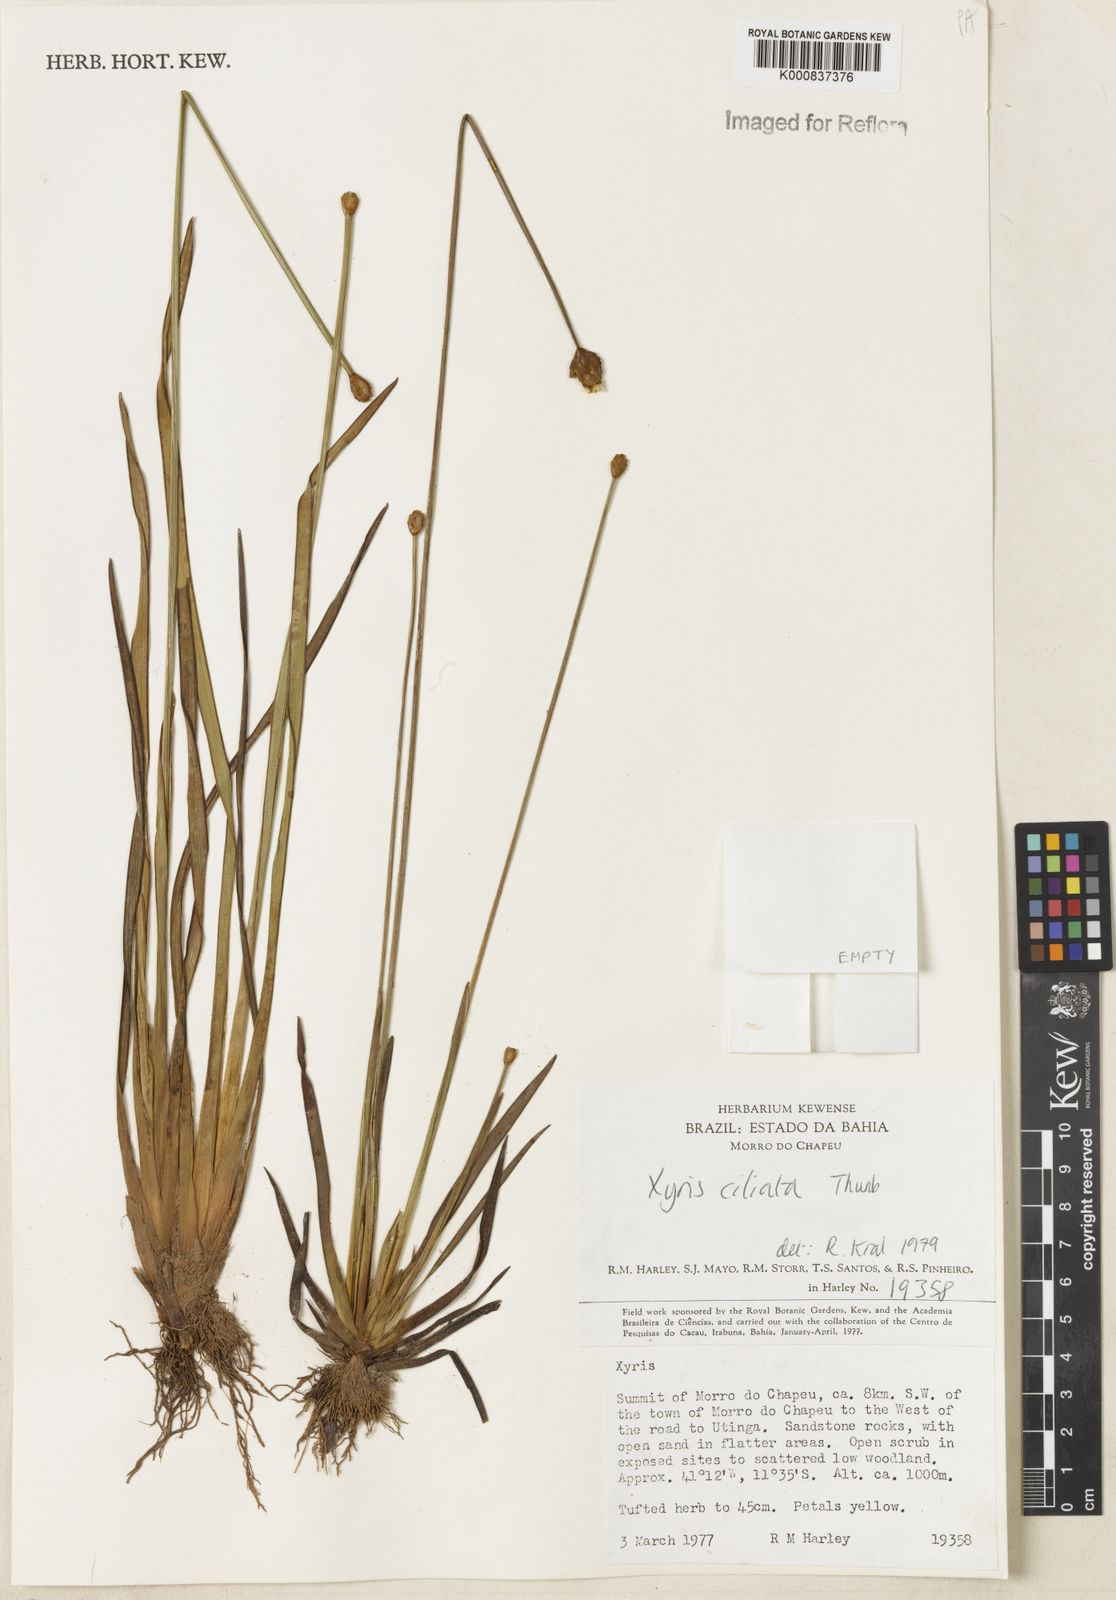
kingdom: Plantae
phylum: Tracheophyta
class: Liliopsida
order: Poales
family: Xyridaceae
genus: Xyris
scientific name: Xyris ciliata
